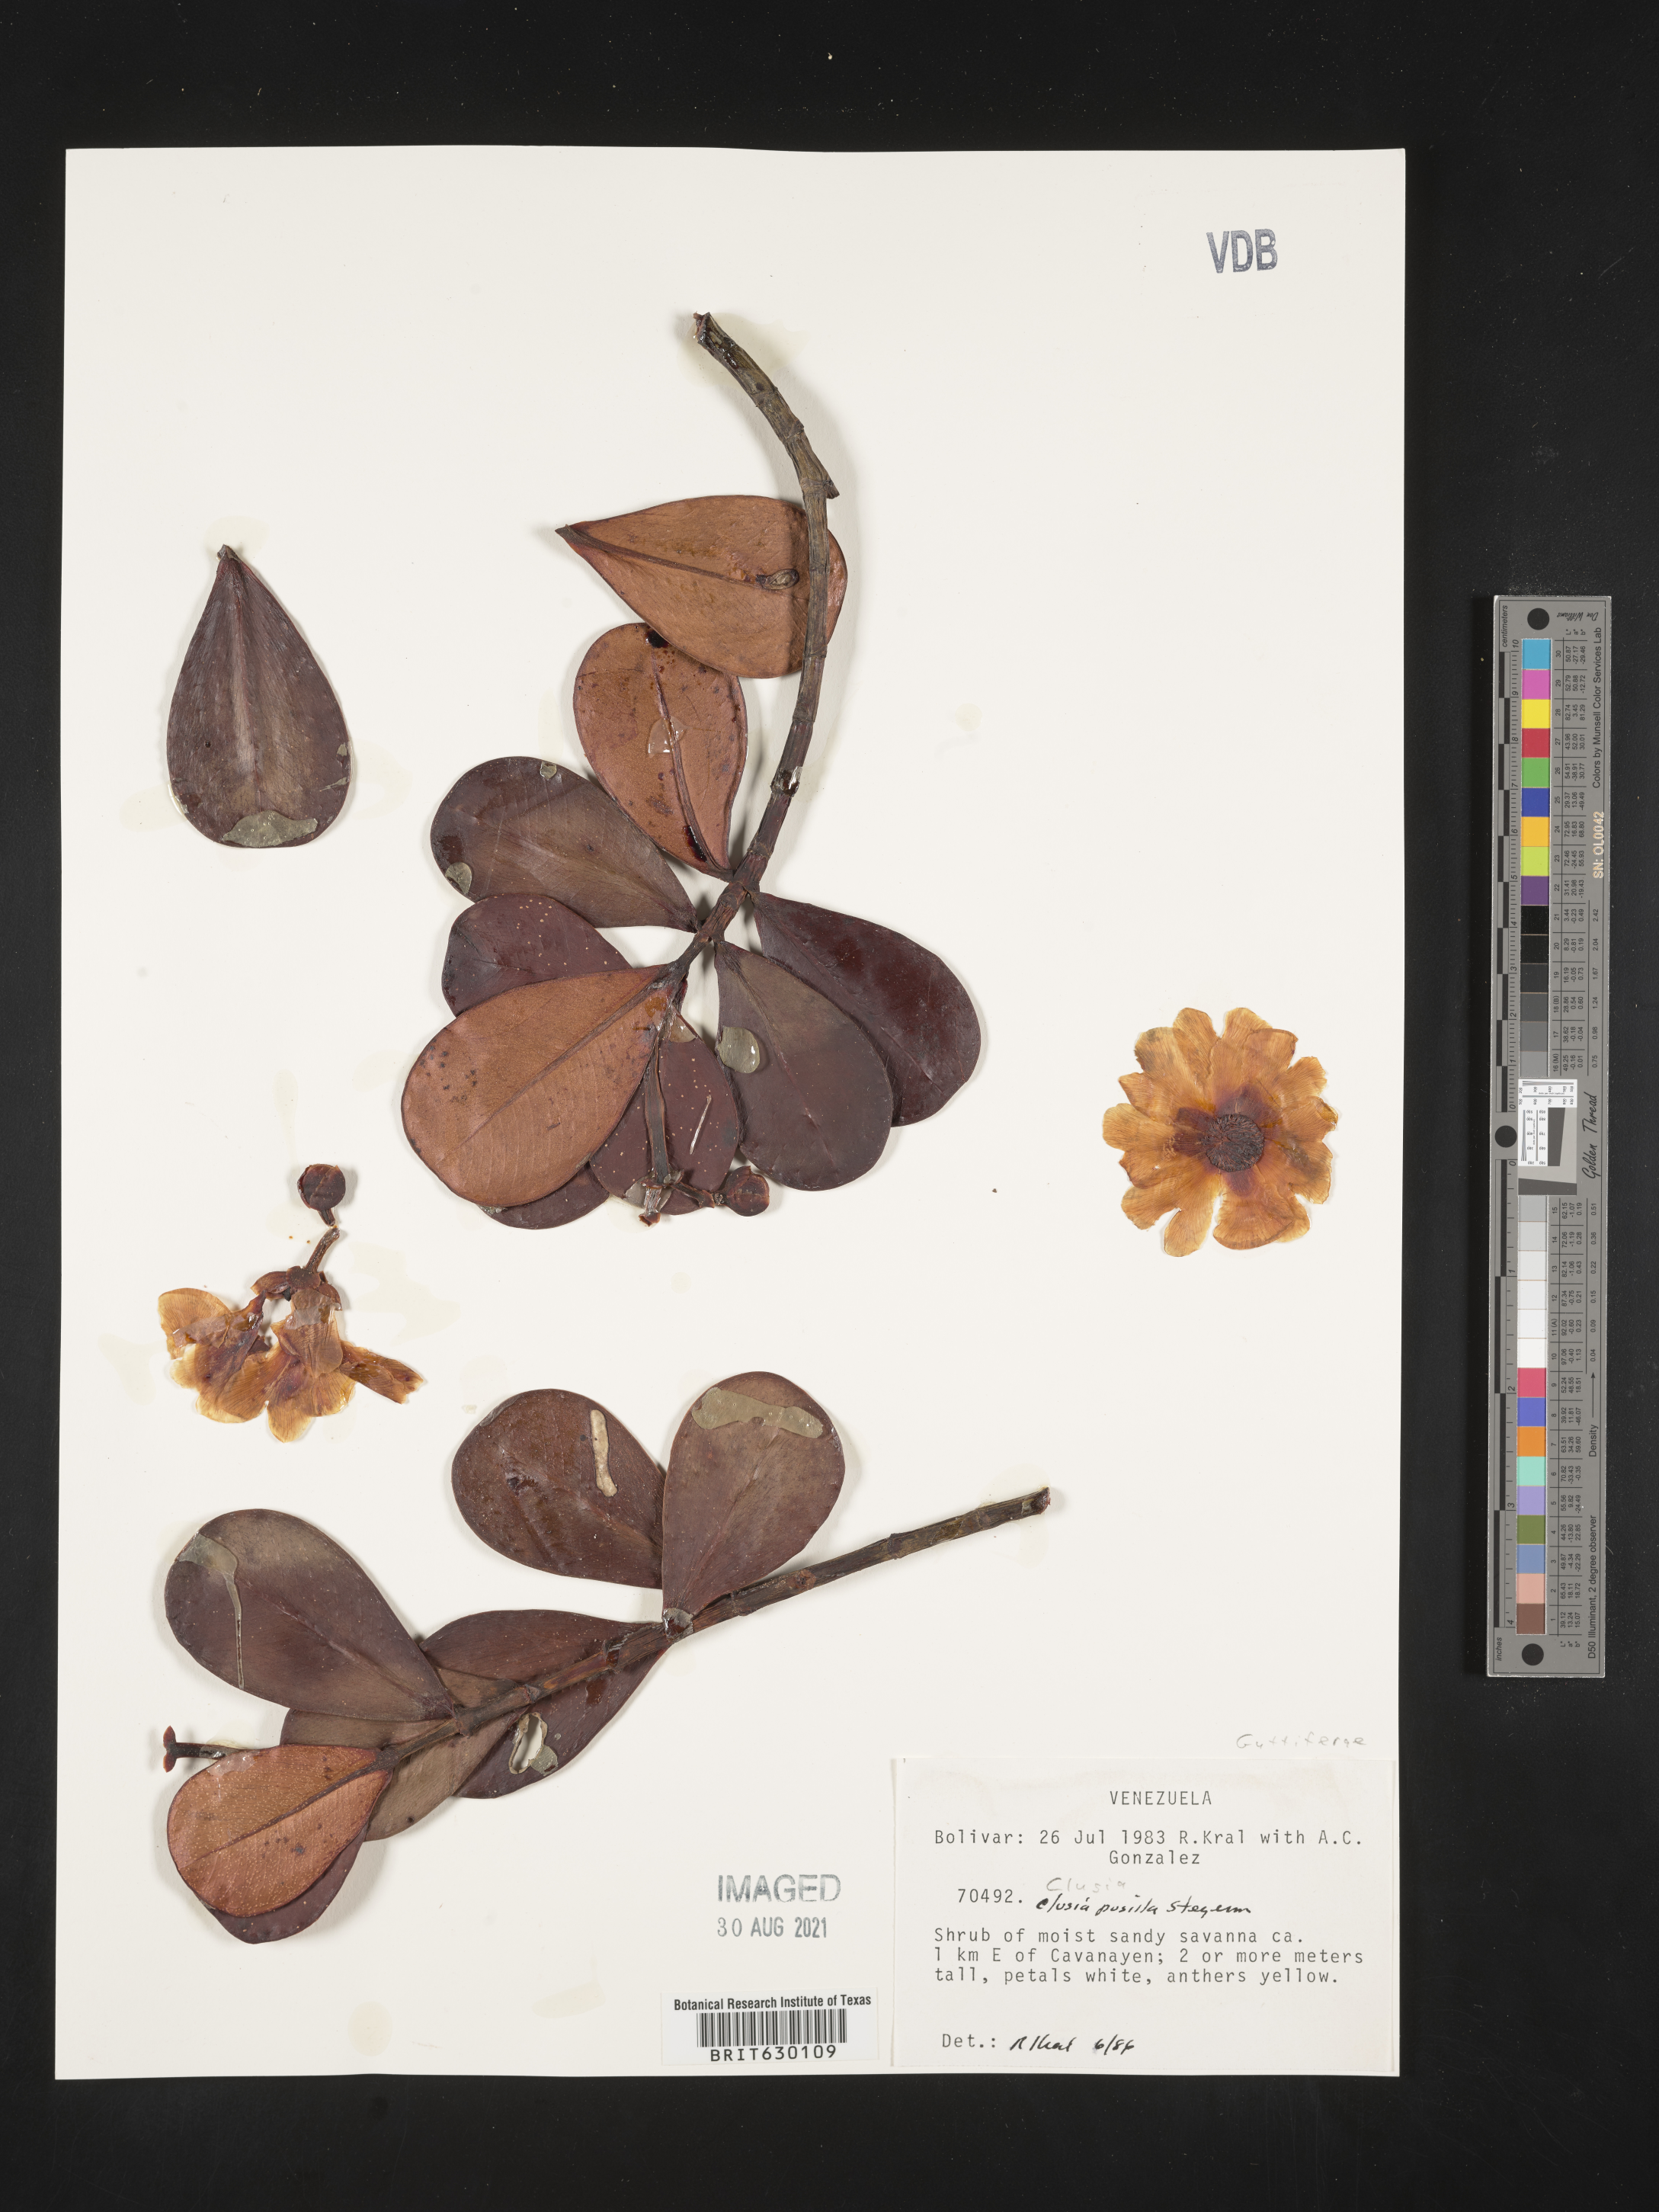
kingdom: Plantae
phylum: Tracheophyta
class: Magnoliopsida
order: Malpighiales
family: Clusiaceae
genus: Clusia
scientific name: Clusia pusilla
